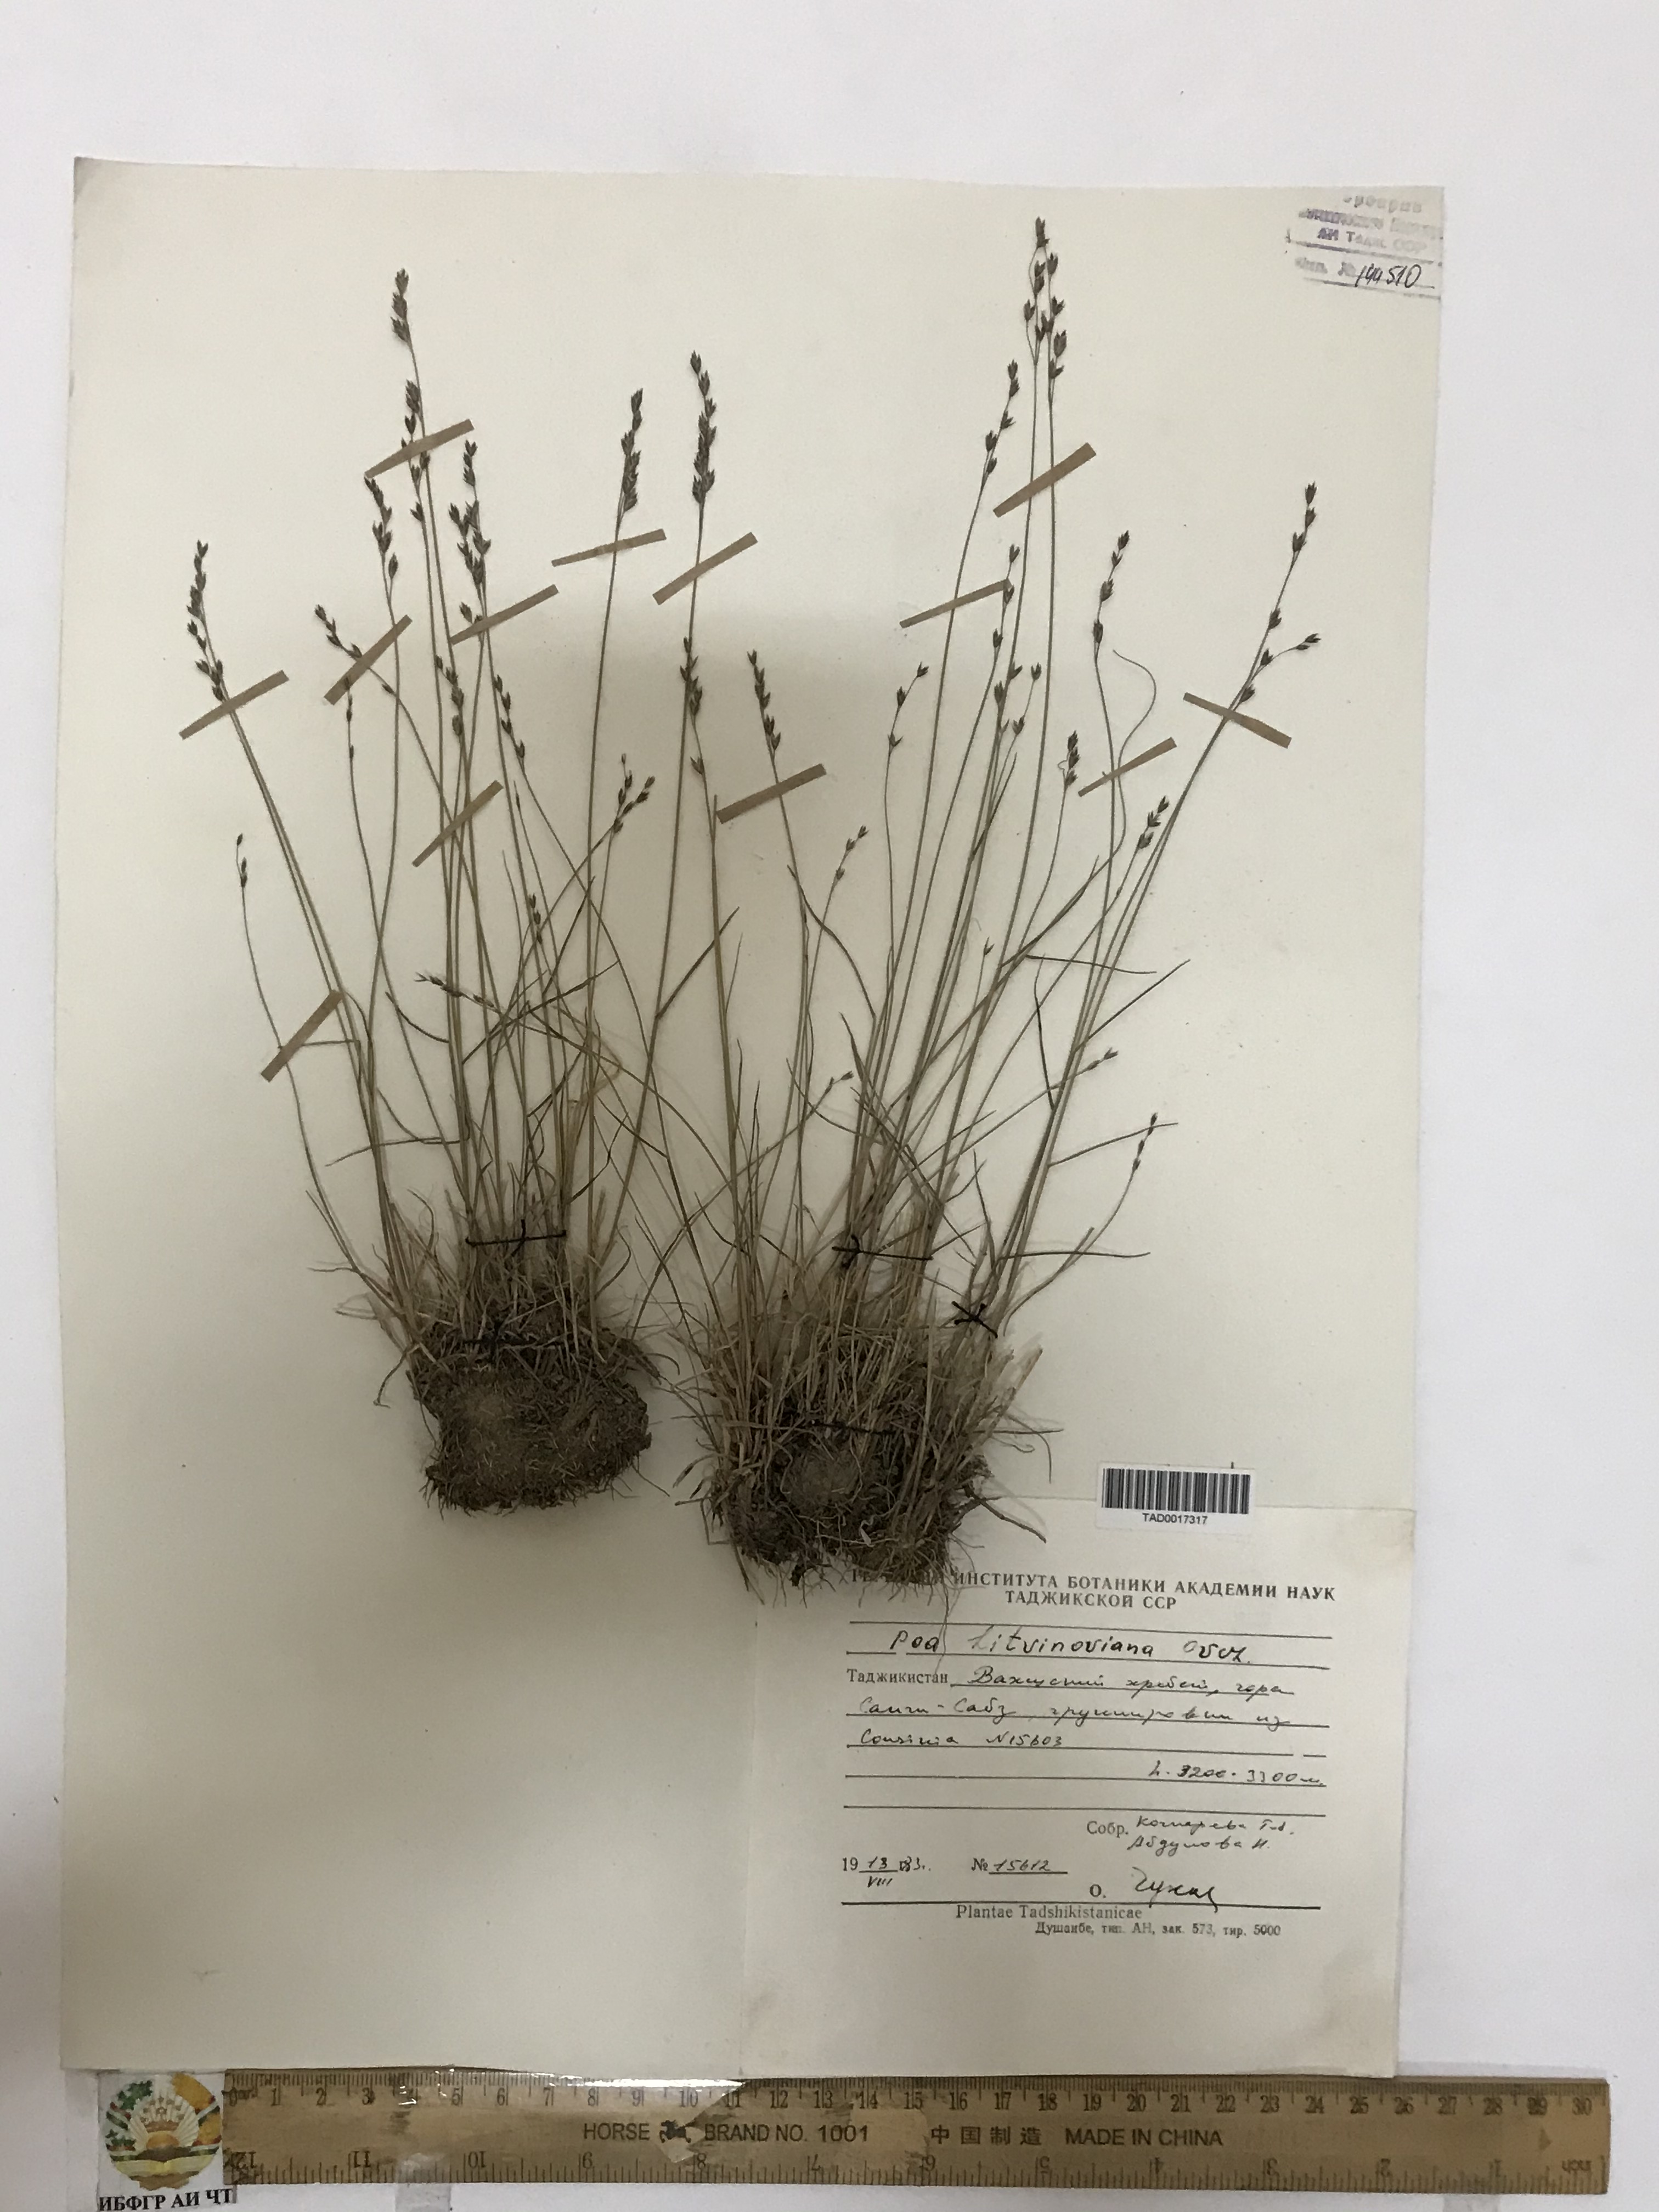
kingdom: Plantae
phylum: Tracheophyta
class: Liliopsida
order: Poales
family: Poaceae
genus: Poa
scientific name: Poa glauca
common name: Glaucous bluegrass
